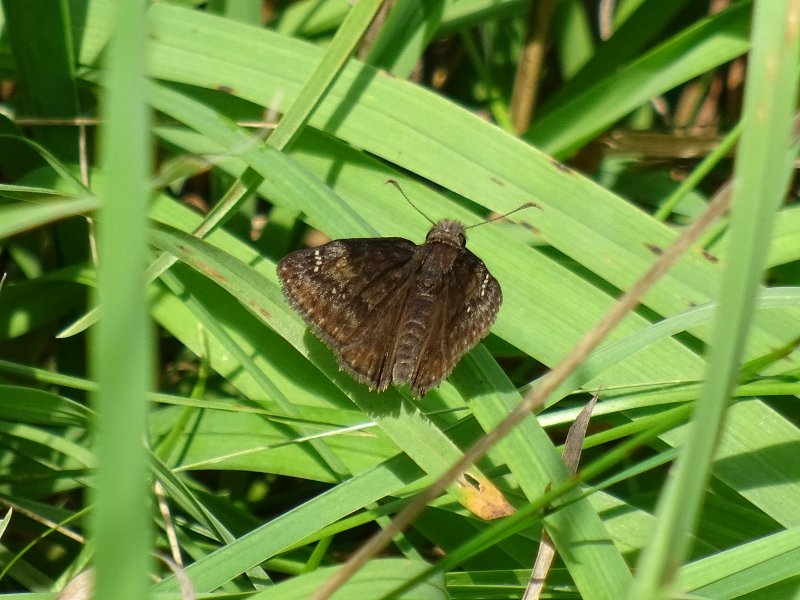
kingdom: Animalia
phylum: Arthropoda
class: Insecta
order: Lepidoptera
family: Hesperiidae
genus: Gesta
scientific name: Gesta
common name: Wild Indigo Duskywing
